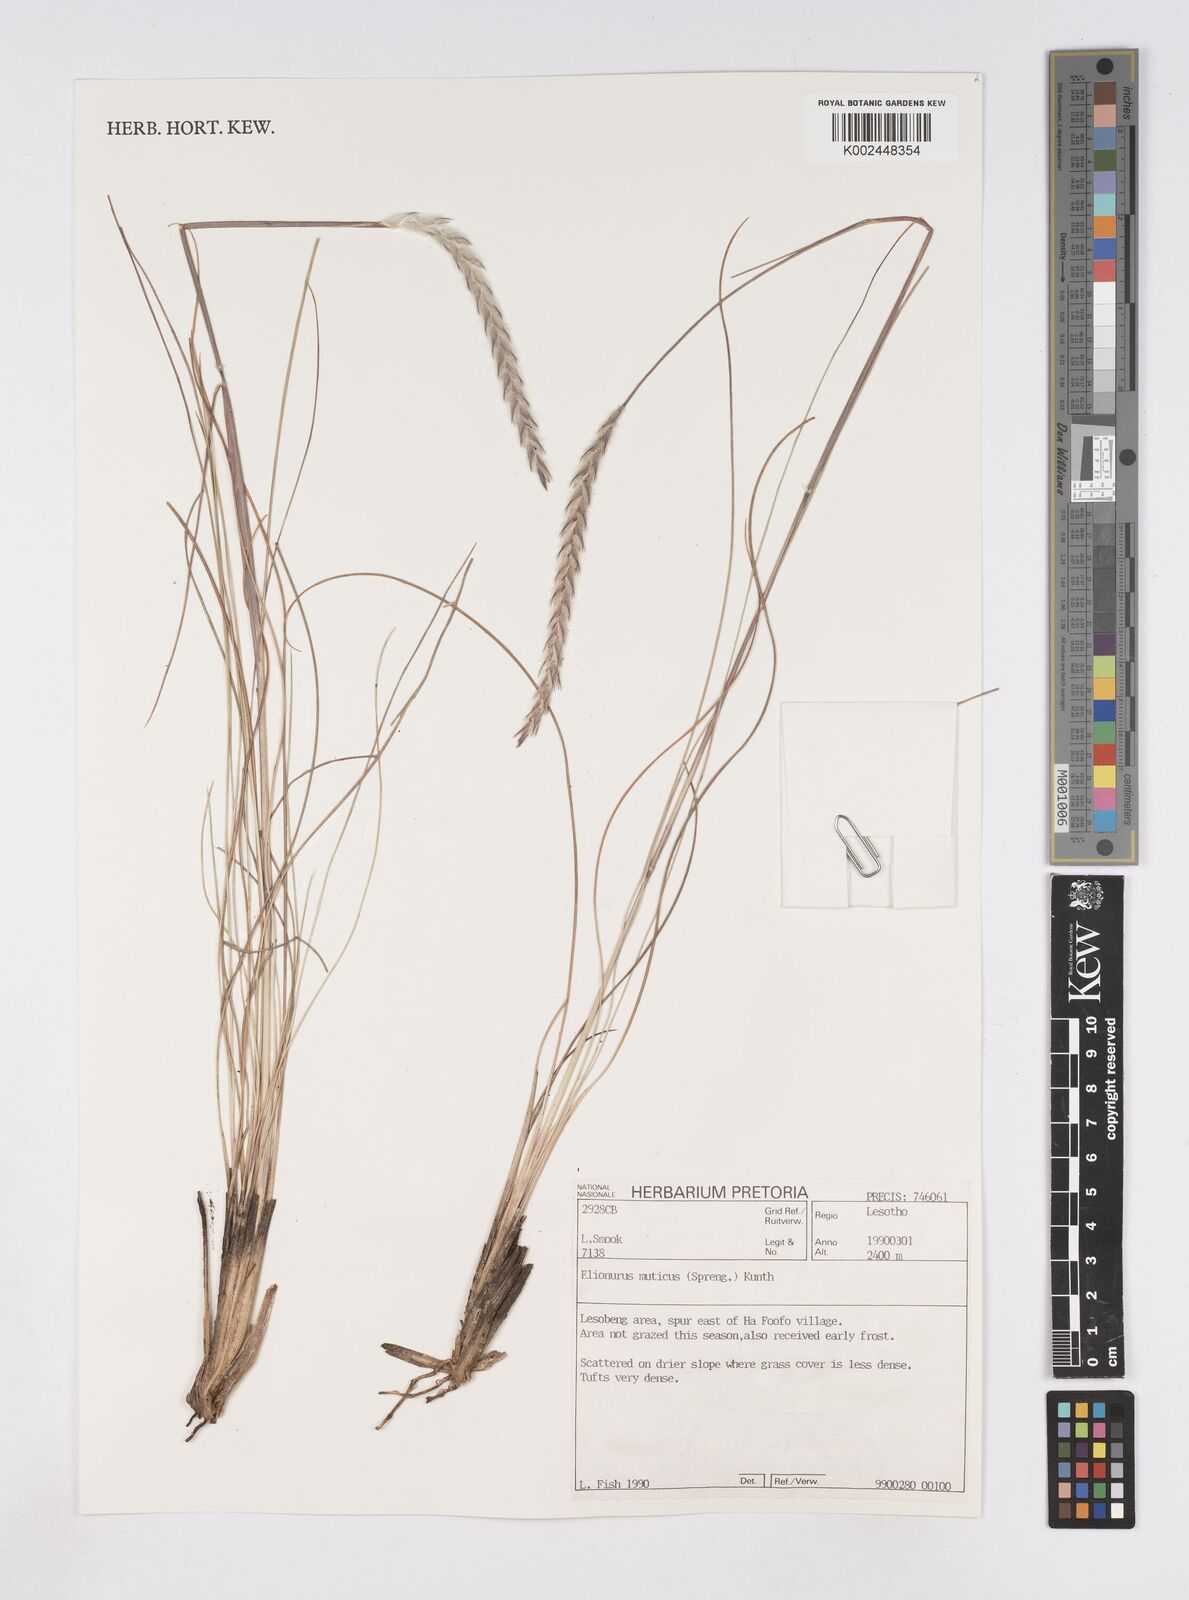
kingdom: Plantae
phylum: Tracheophyta
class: Liliopsida
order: Poales
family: Poaceae
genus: Elionurus
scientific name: Elionurus muticus
